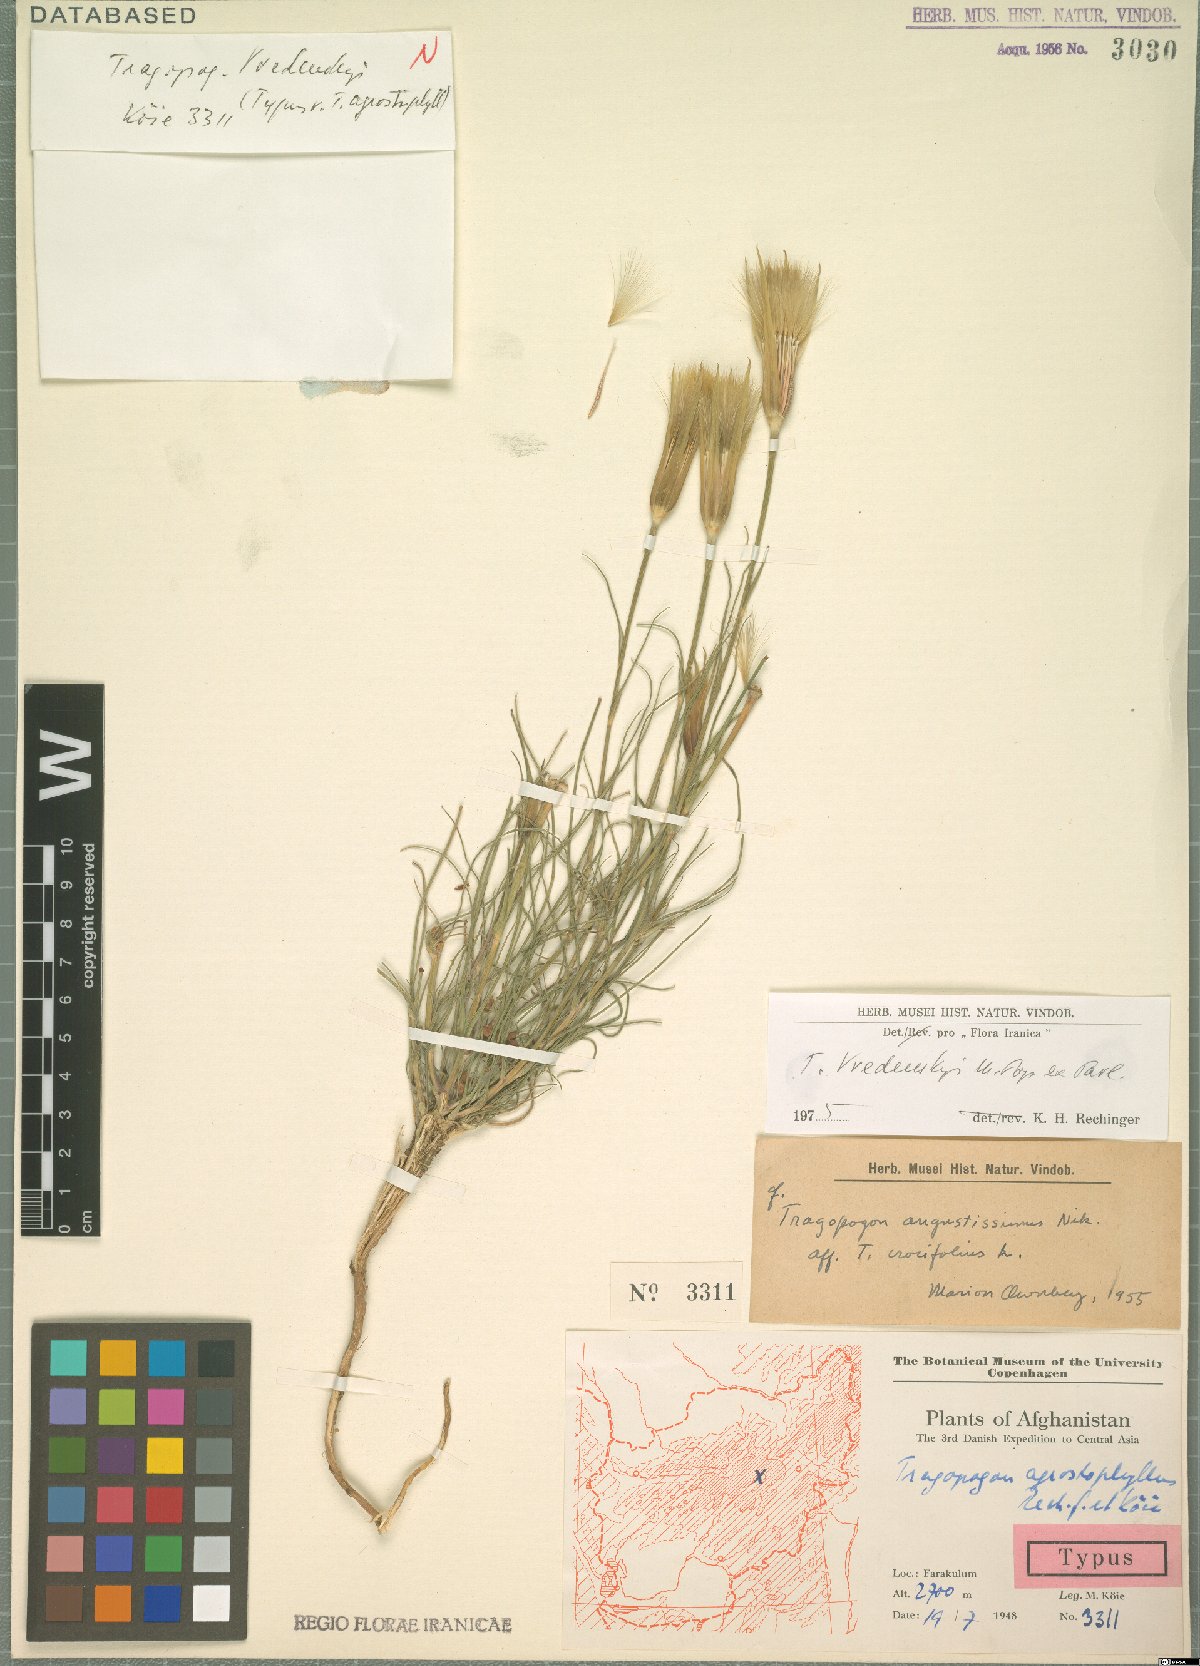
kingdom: Plantae
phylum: Tracheophyta
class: Magnoliopsida
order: Asterales
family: Asteraceae
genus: Tragopogon
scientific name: Tragopogon vvedenskyi
